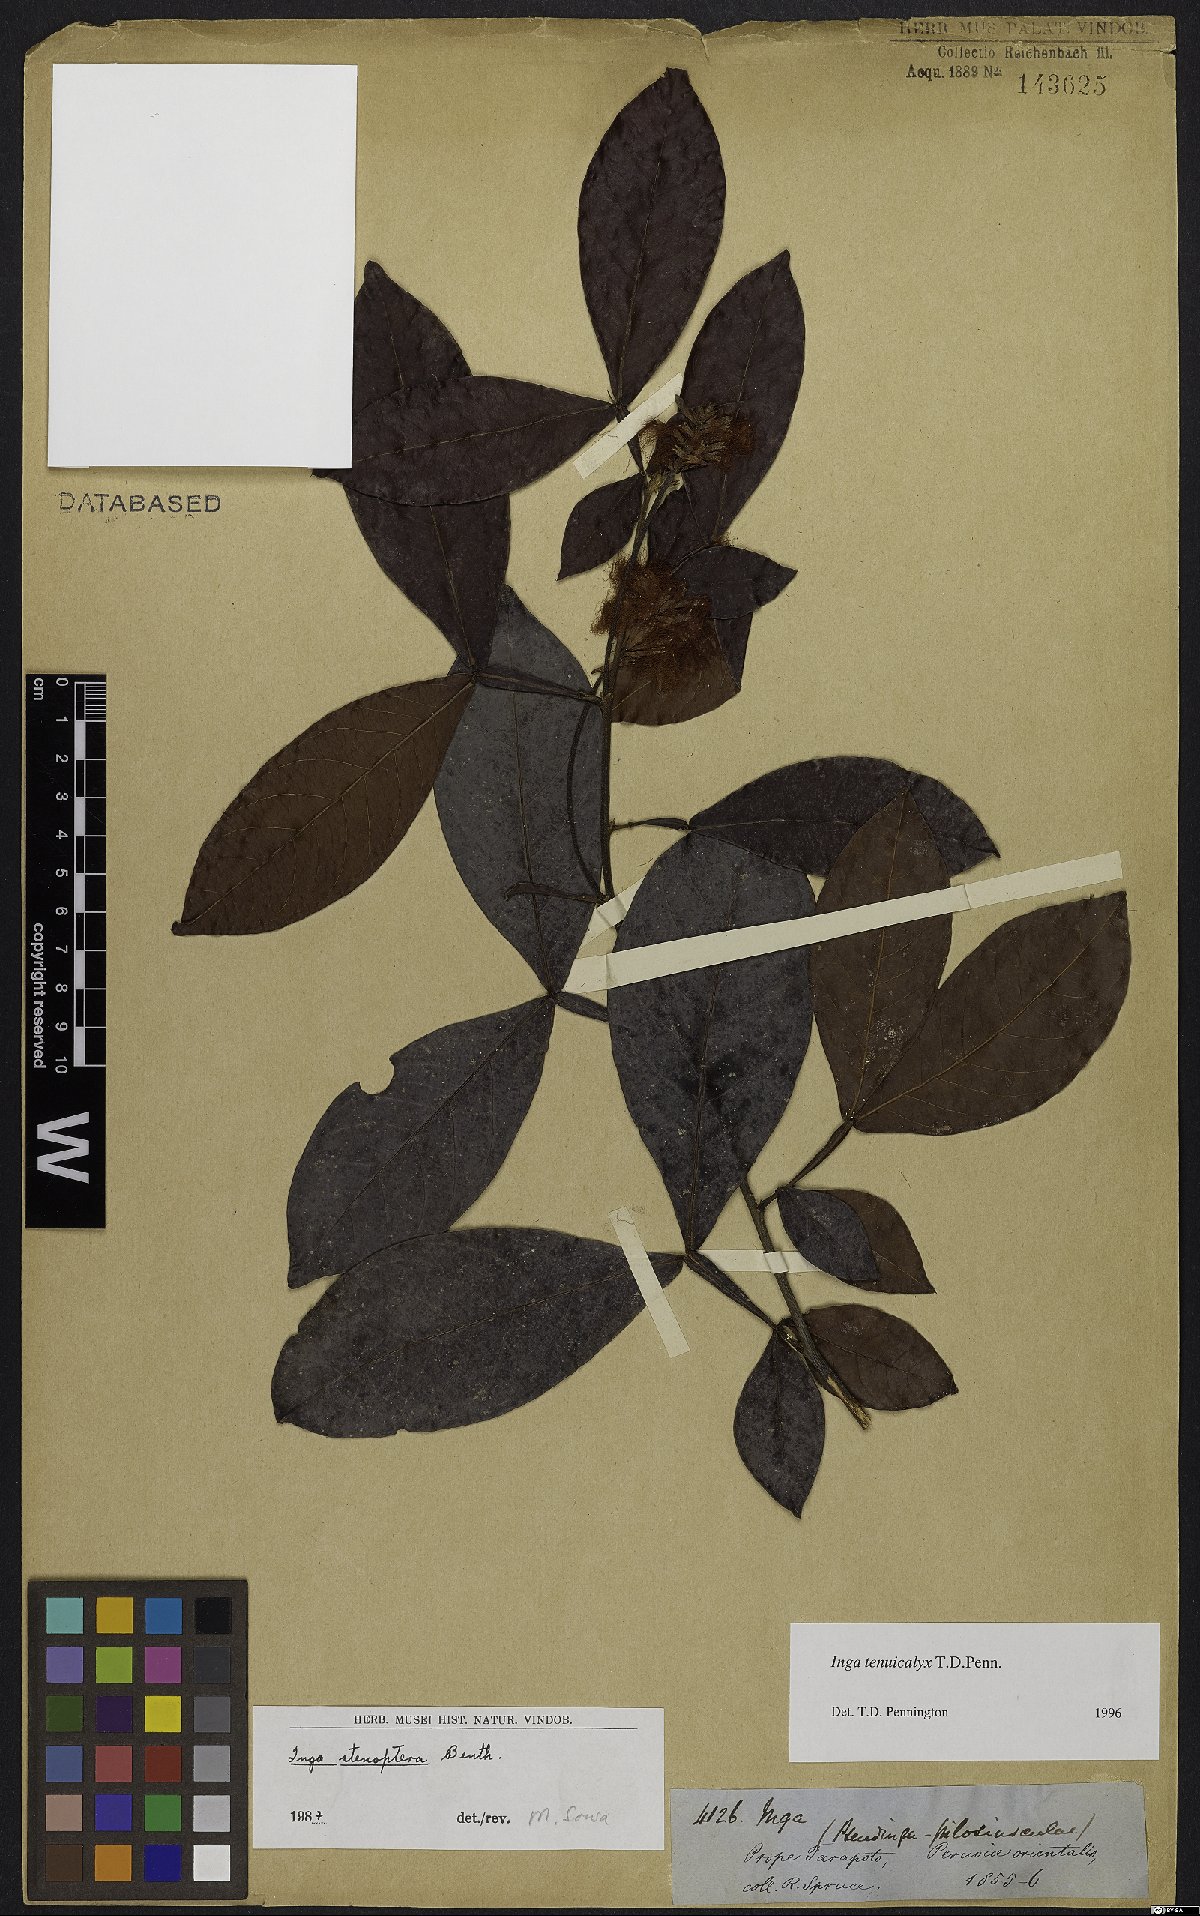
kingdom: Plantae
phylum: Tracheophyta
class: Magnoliopsida
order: Fabales
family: Fabaceae
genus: Inga
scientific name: Inga tenuicalyx
